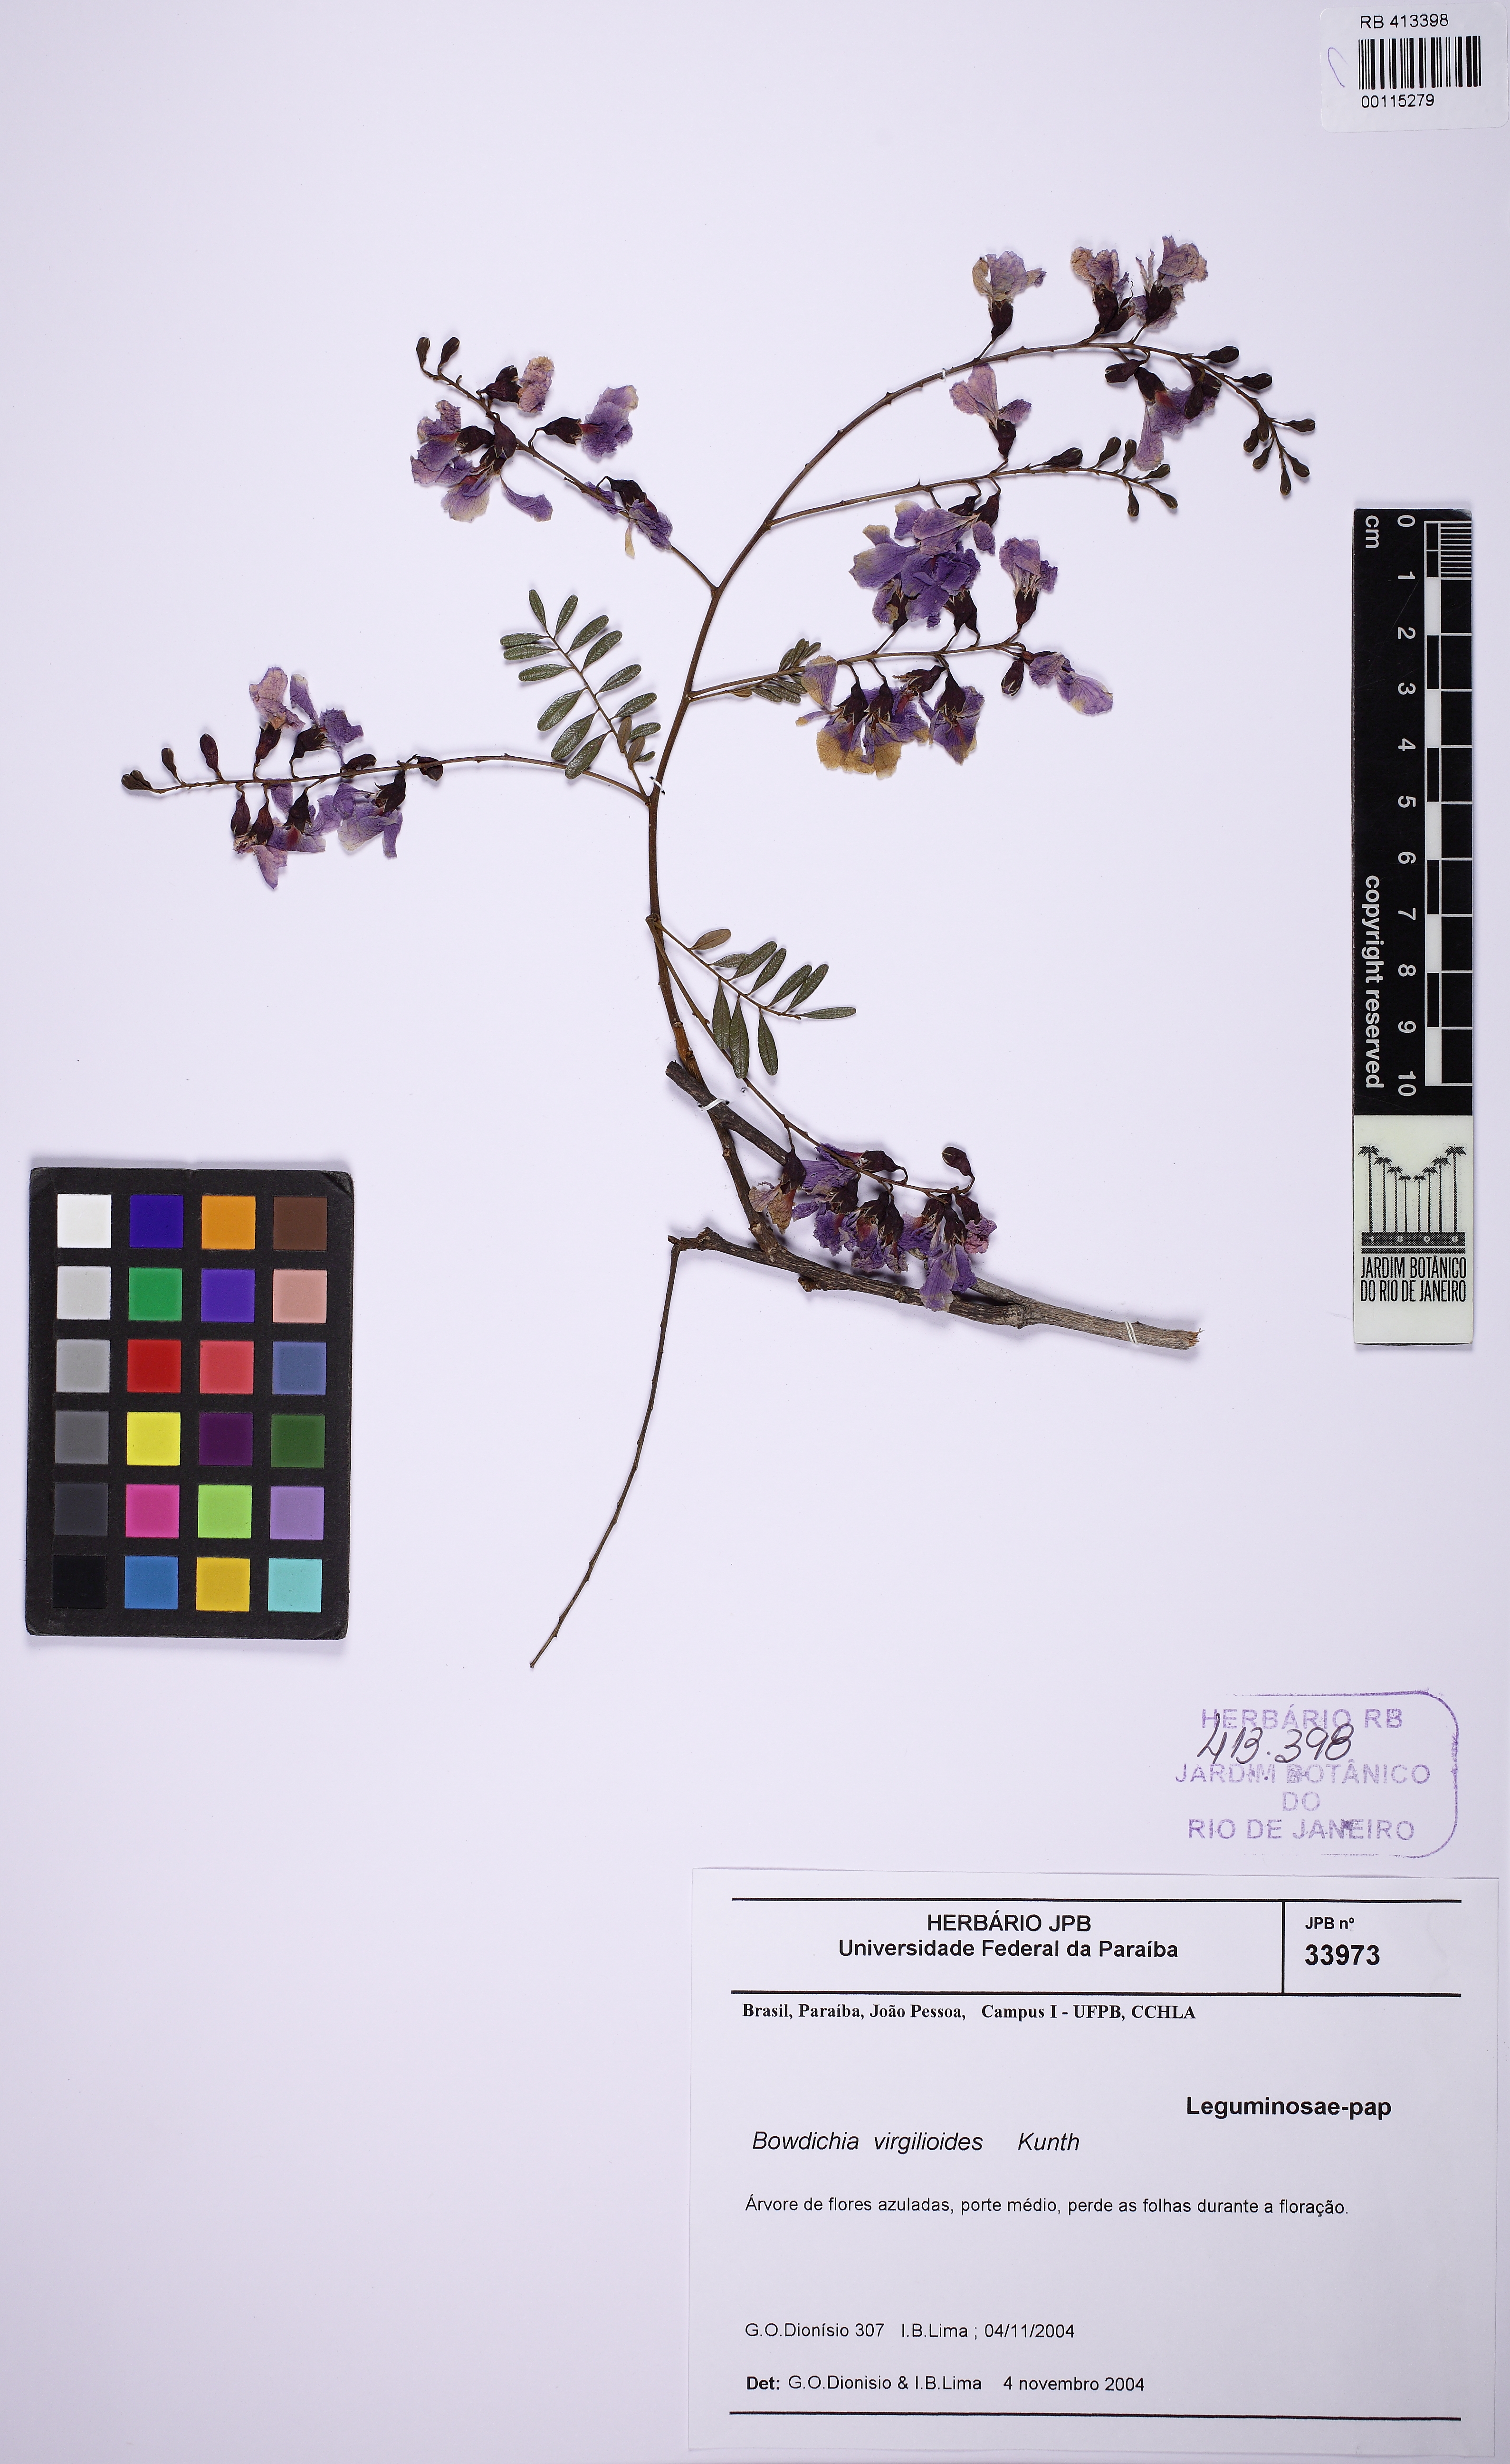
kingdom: Plantae
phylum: Tracheophyta
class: Magnoliopsida
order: Fabales
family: Fabaceae
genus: Bowdichia
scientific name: Bowdichia virgilioides
